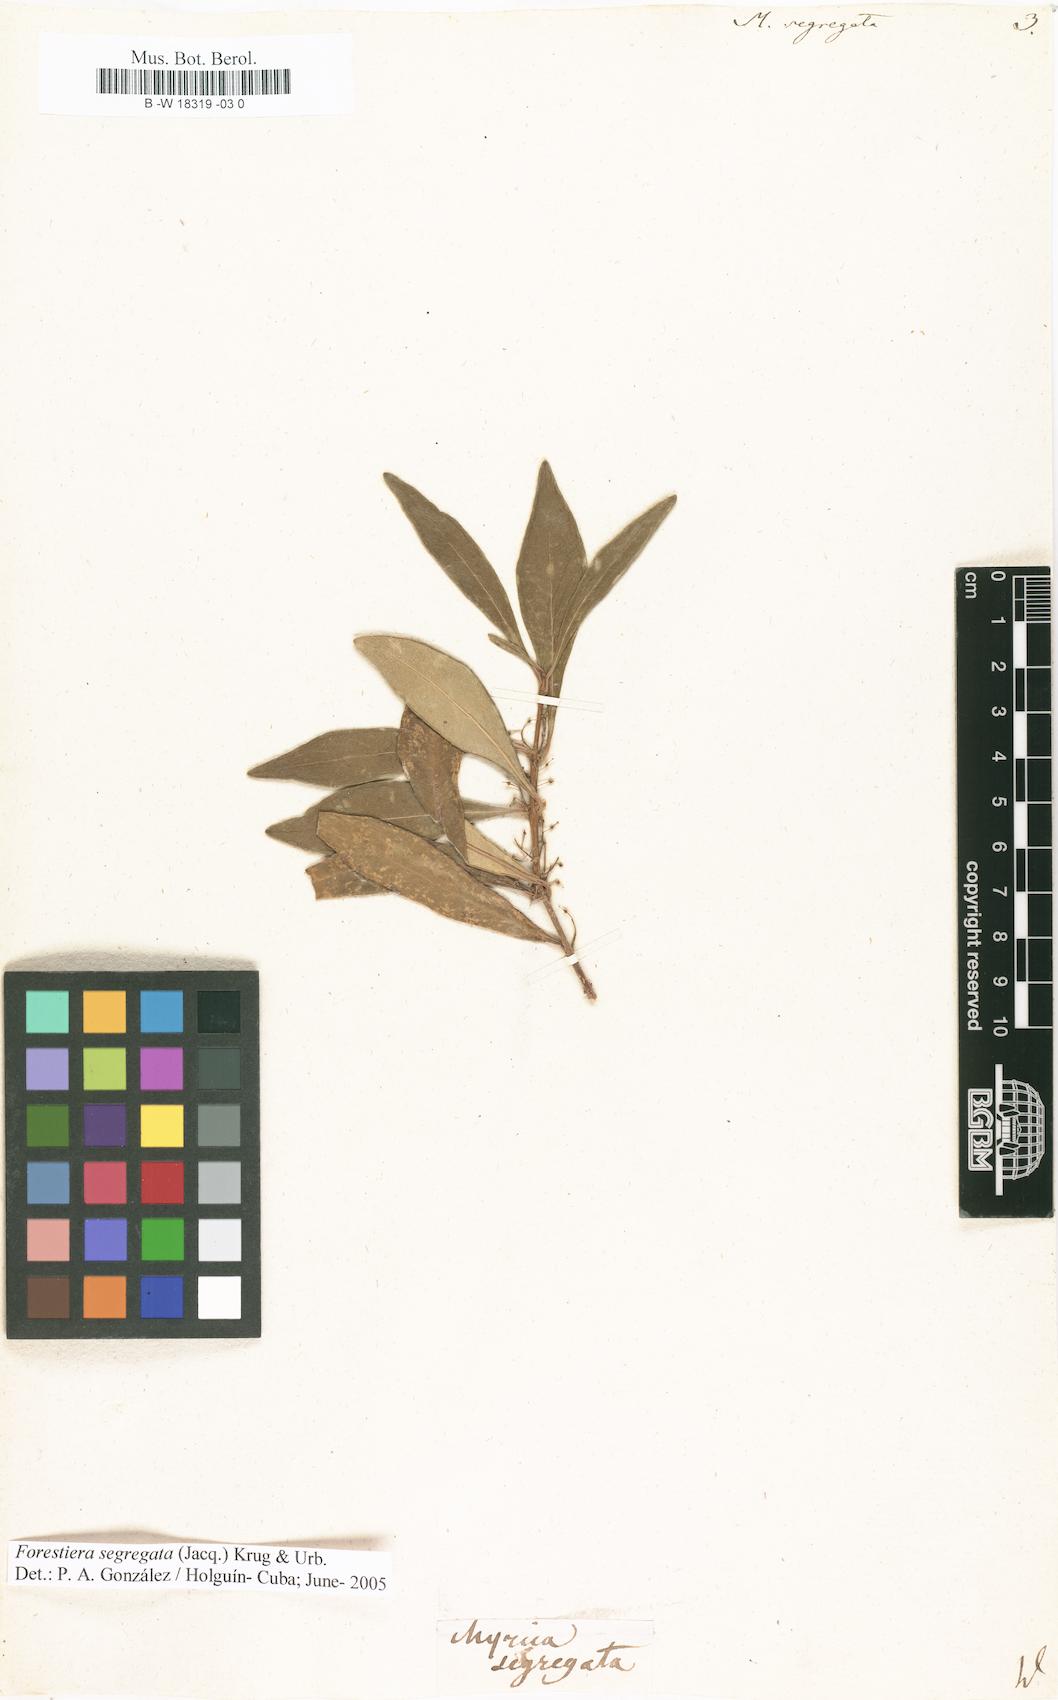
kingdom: Plantae
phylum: Tracheophyta
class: Magnoliopsida
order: Lamiales
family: Oleaceae
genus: Forestiera
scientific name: Forestiera segregata
